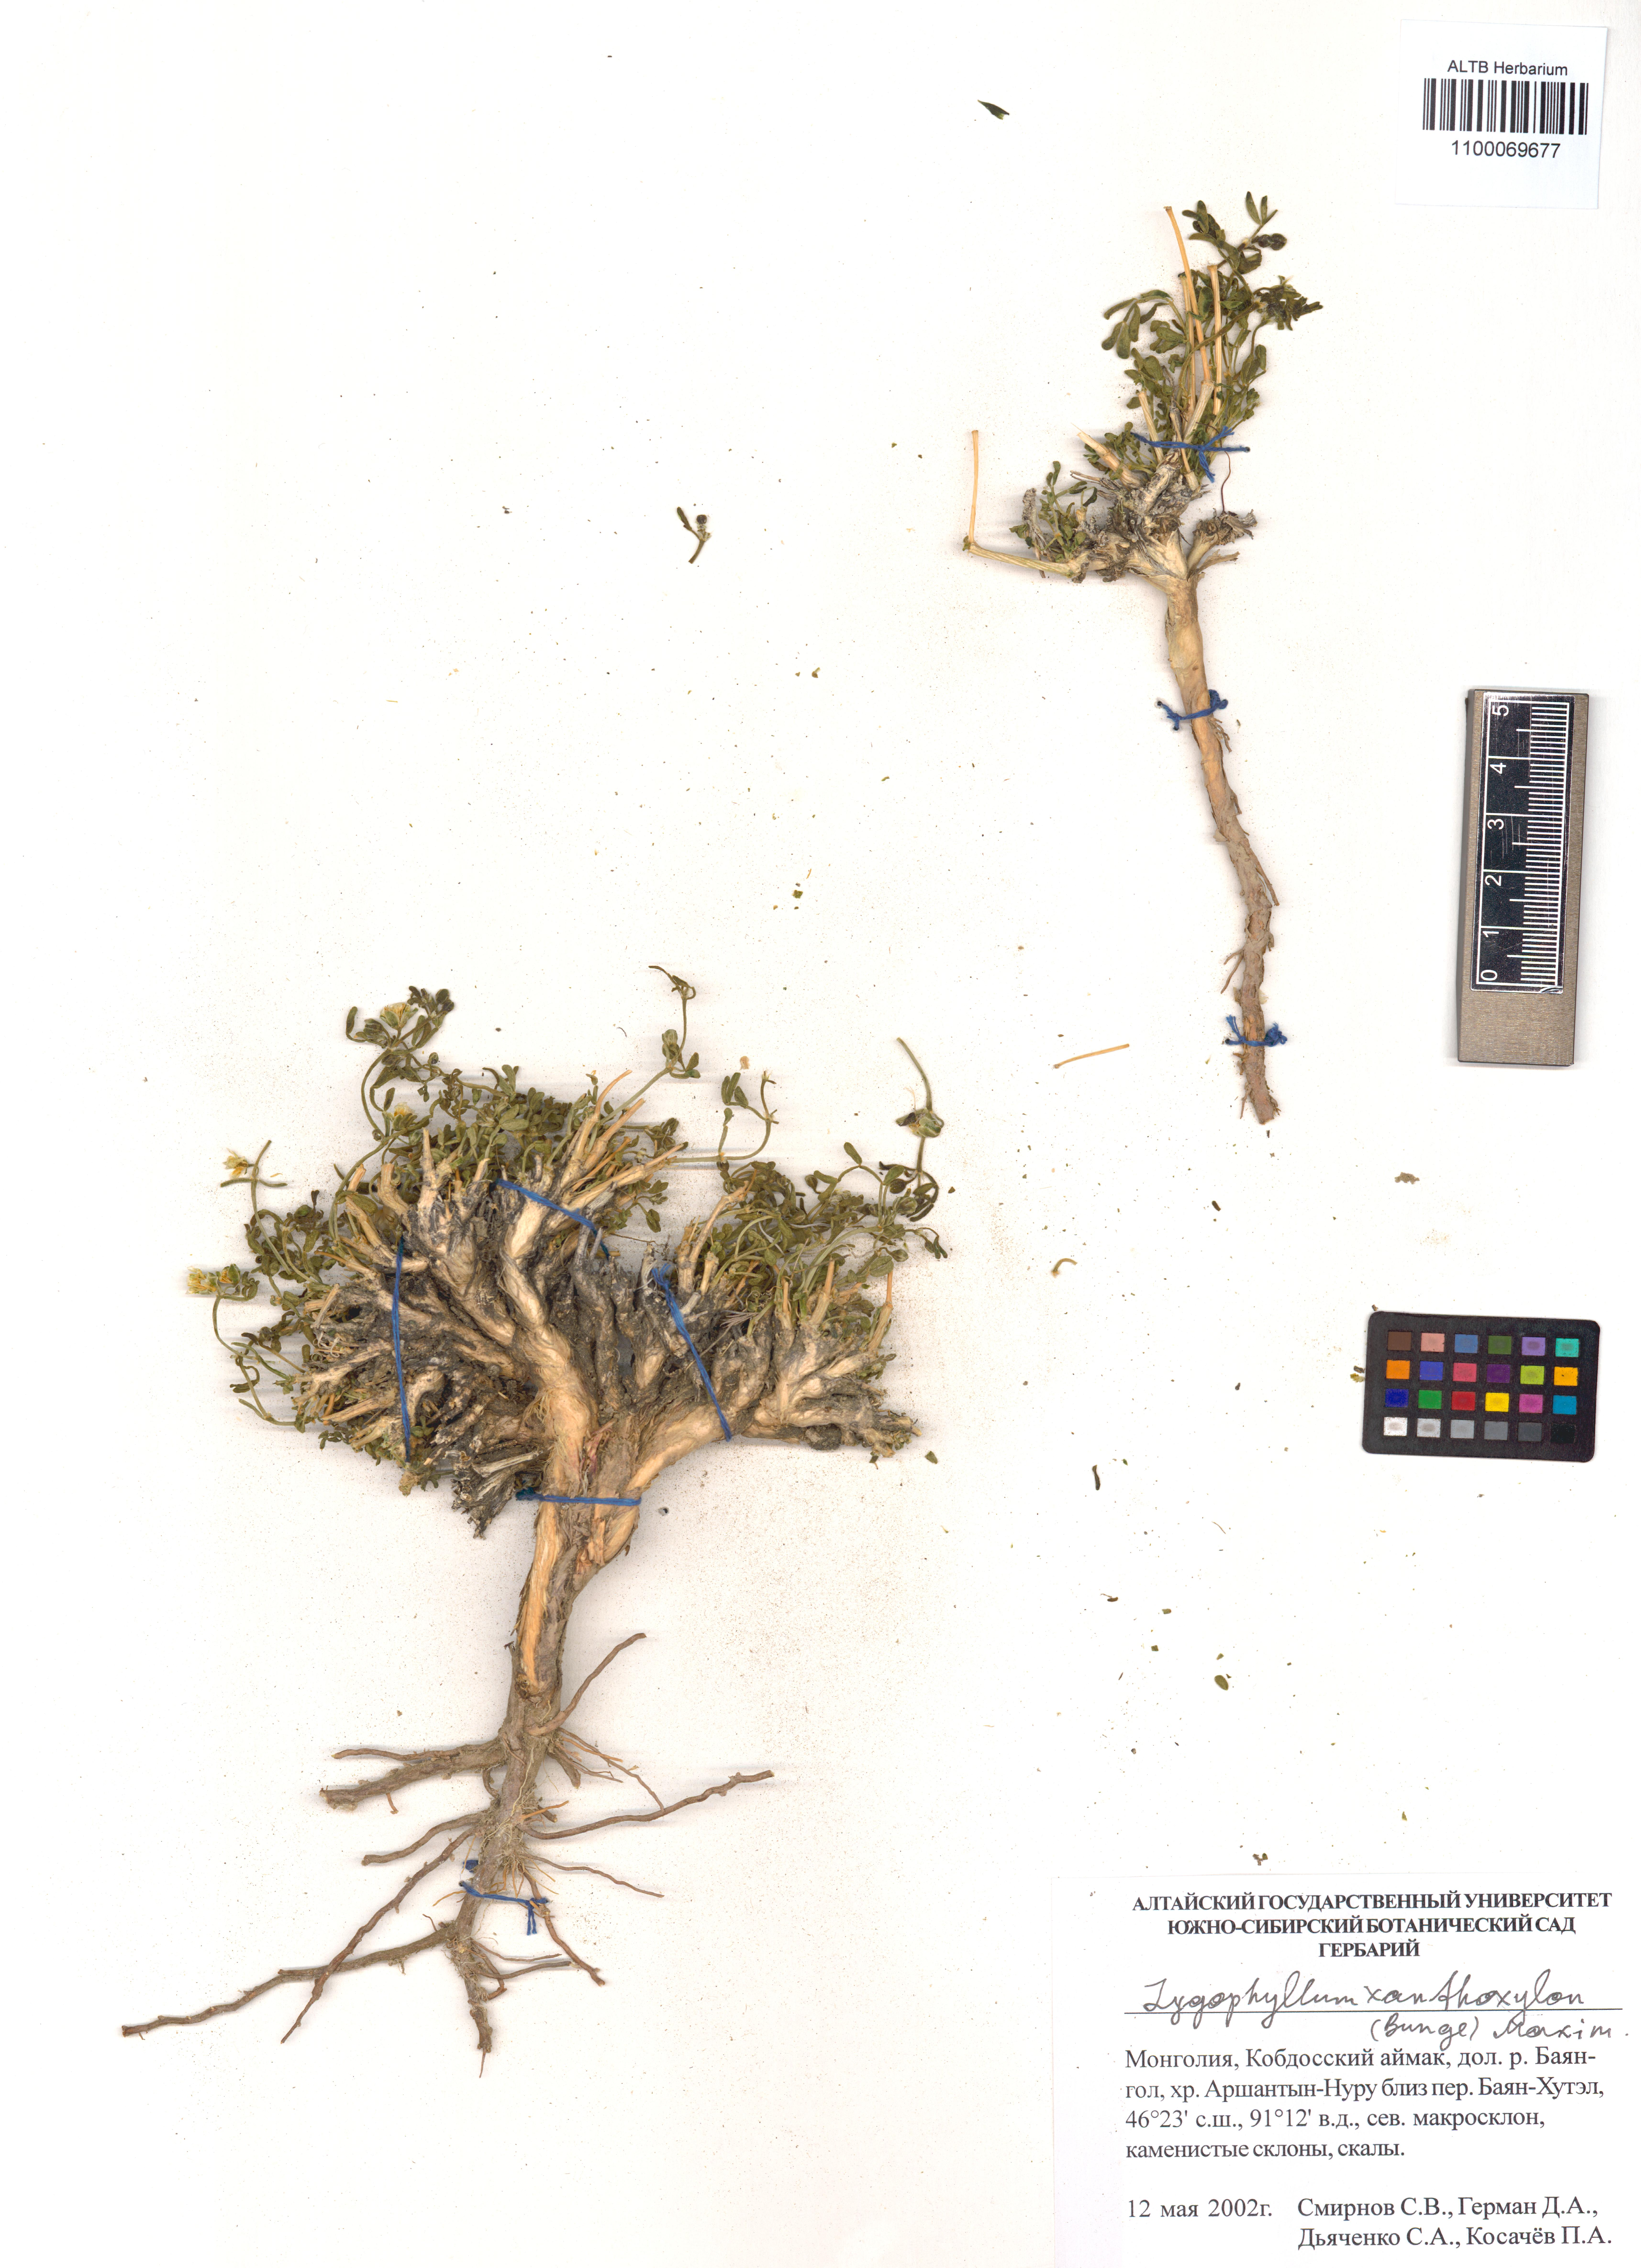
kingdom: Plantae
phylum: Tracheophyta
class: Magnoliopsida
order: Zygophyllales
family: Zygophyllaceae
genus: Zygophyllum
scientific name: Zygophyllum xanthoxylum
